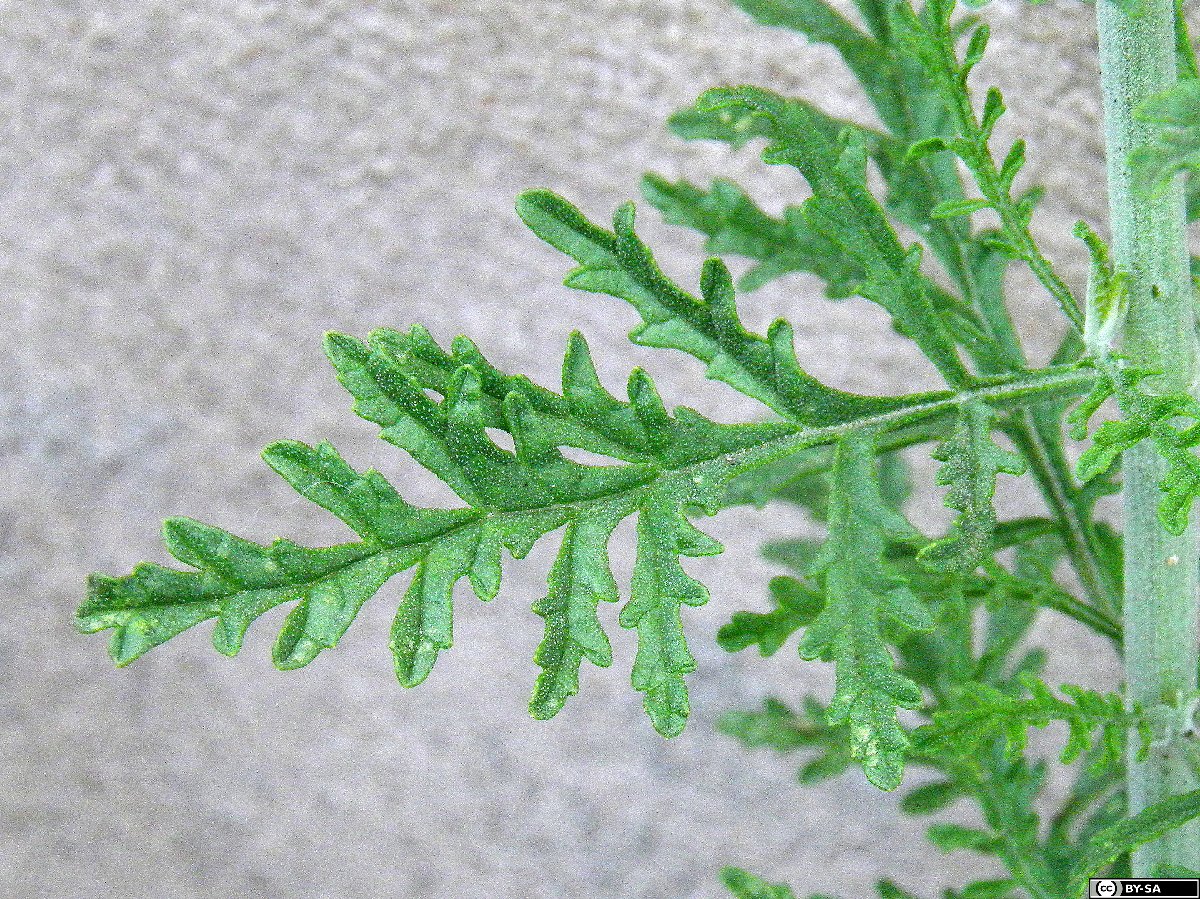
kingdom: Plantae
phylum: Tracheophyta
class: Magnoliopsida
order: Lamiales
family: Lamiaceae
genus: Salvia
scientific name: Salvia abrotanoides
